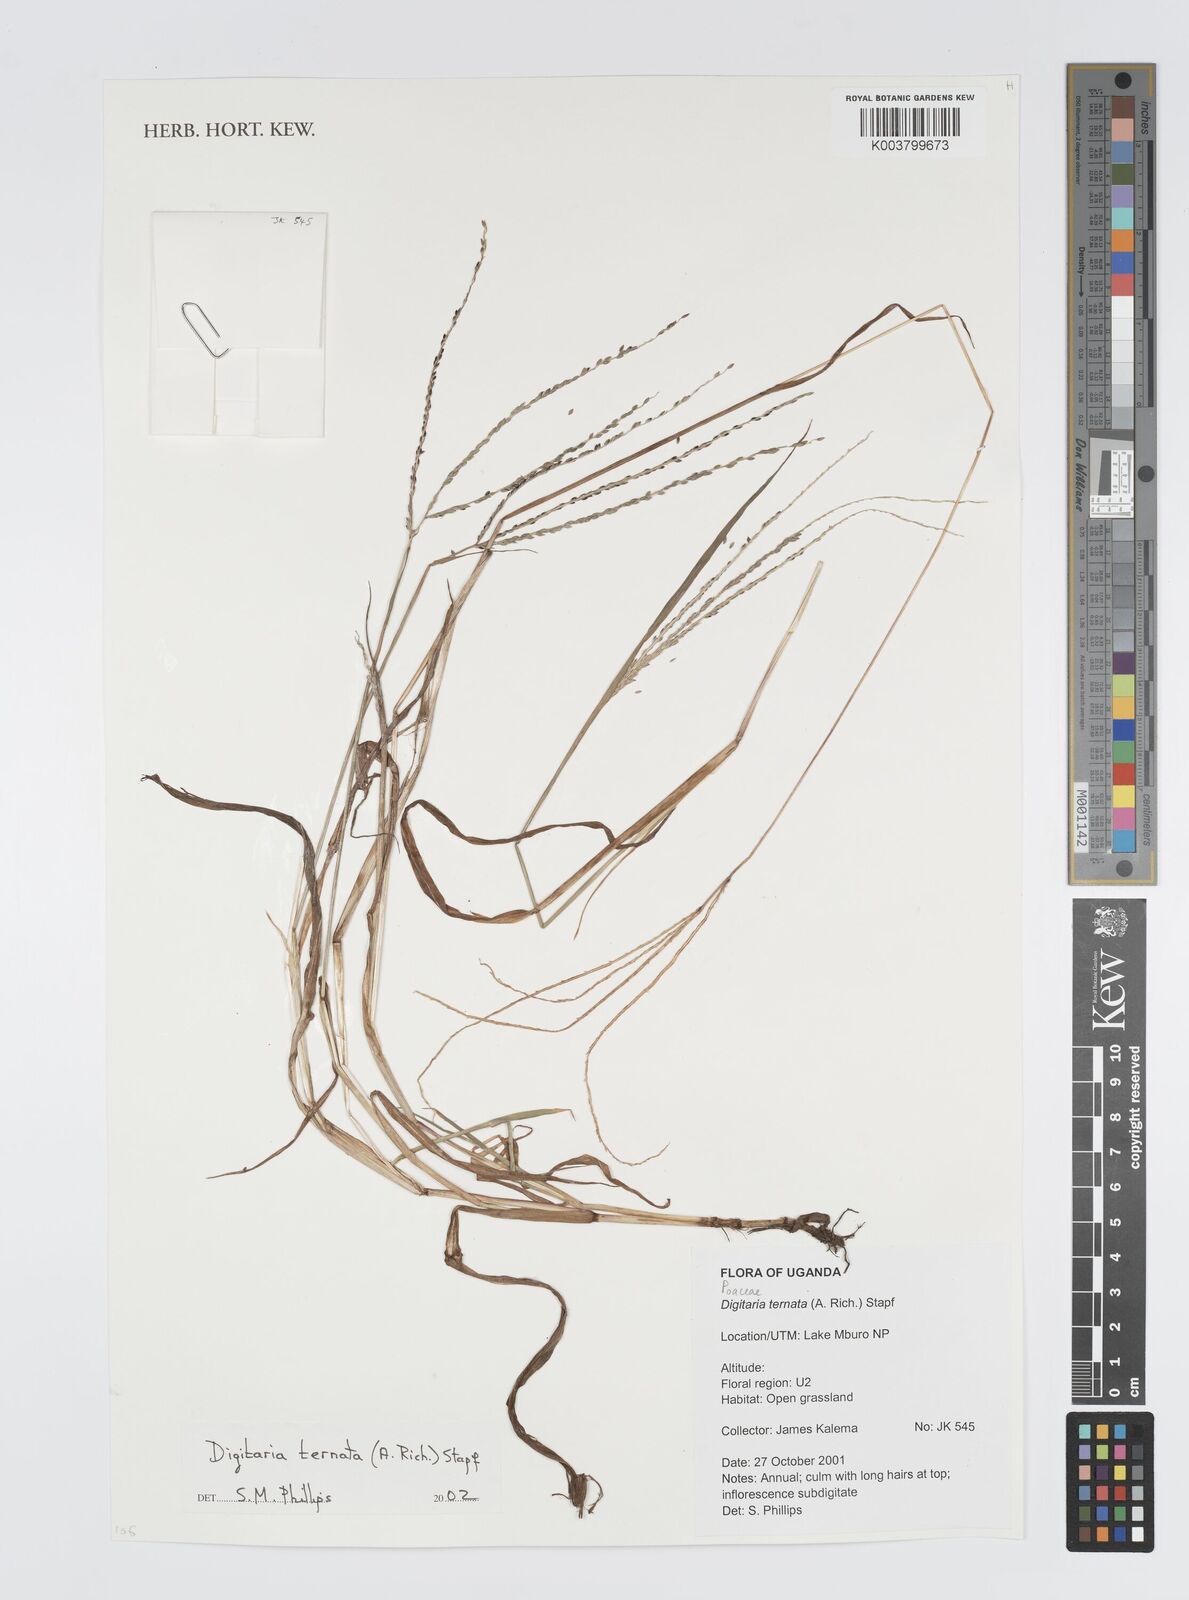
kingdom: Plantae
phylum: Tracheophyta
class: Liliopsida
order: Poales
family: Poaceae
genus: Digitaria
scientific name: Digitaria ternata
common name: Blackseed crabgrass
